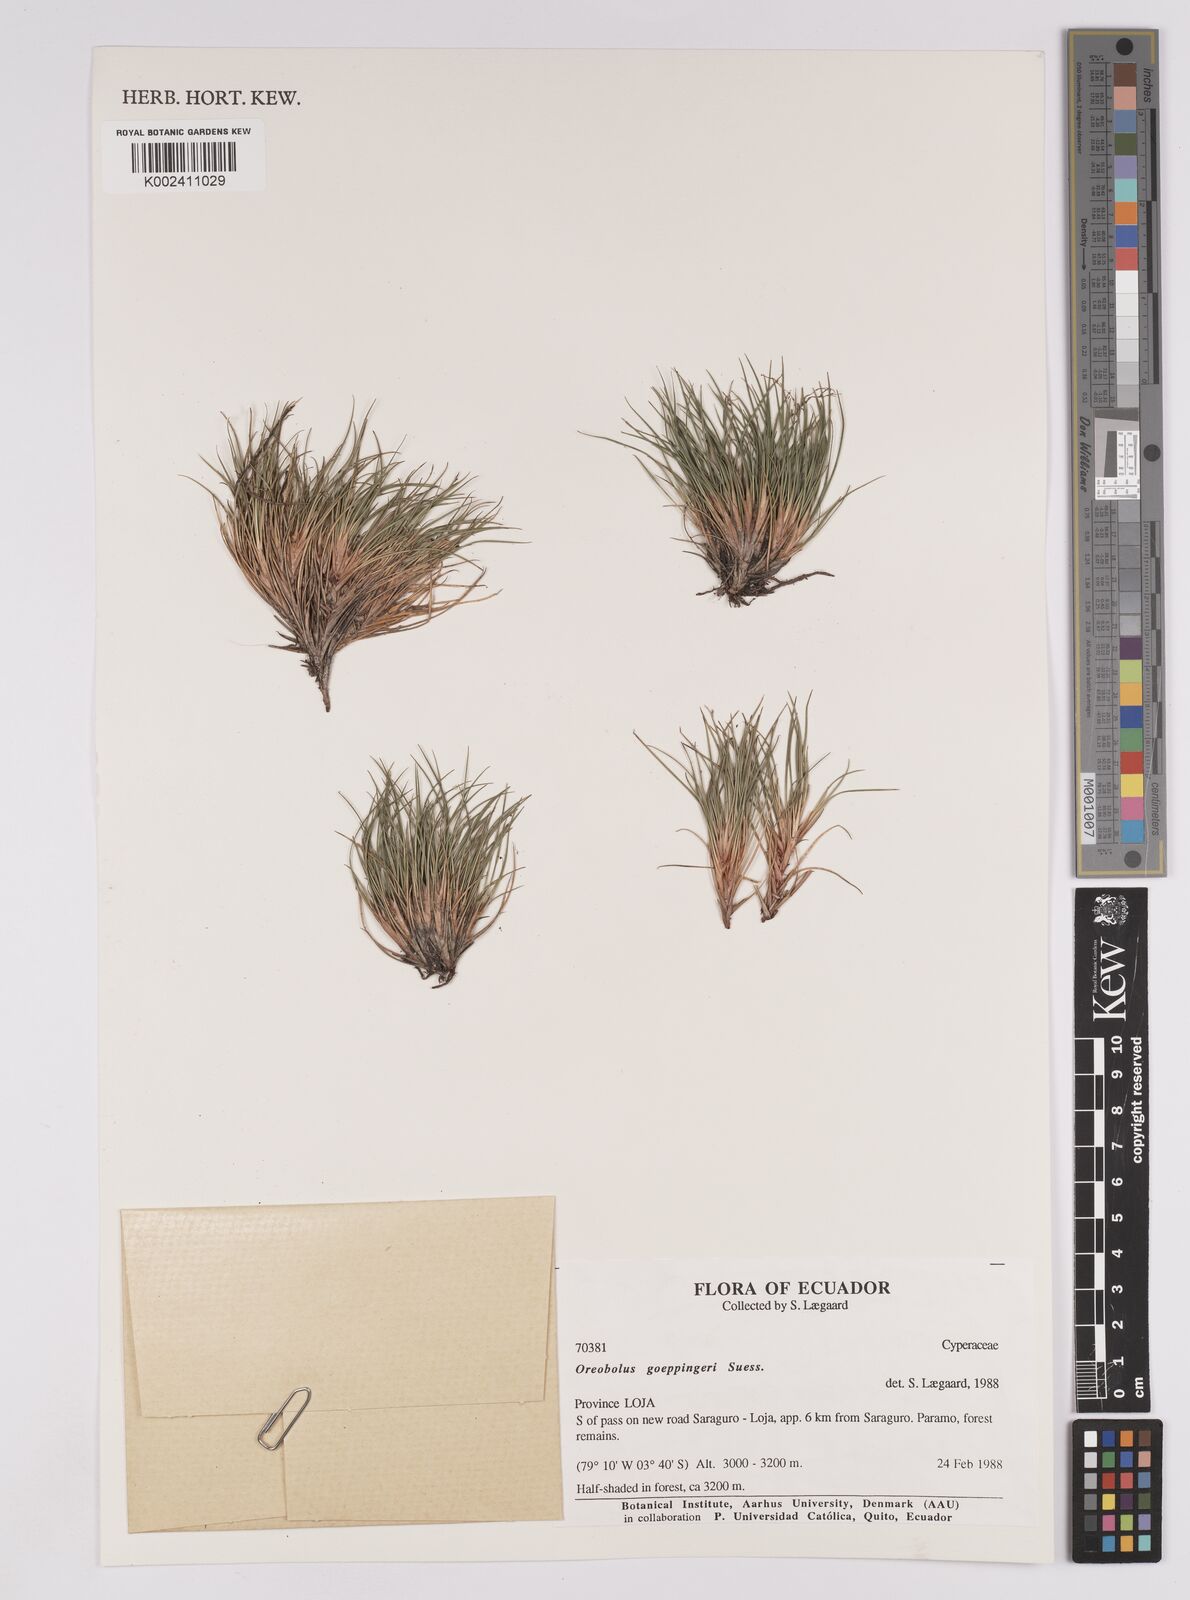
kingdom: Plantae
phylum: Tracheophyta
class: Liliopsida
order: Poales
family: Cyperaceae
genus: Oreobolus
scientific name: Oreobolus goeppingeri
